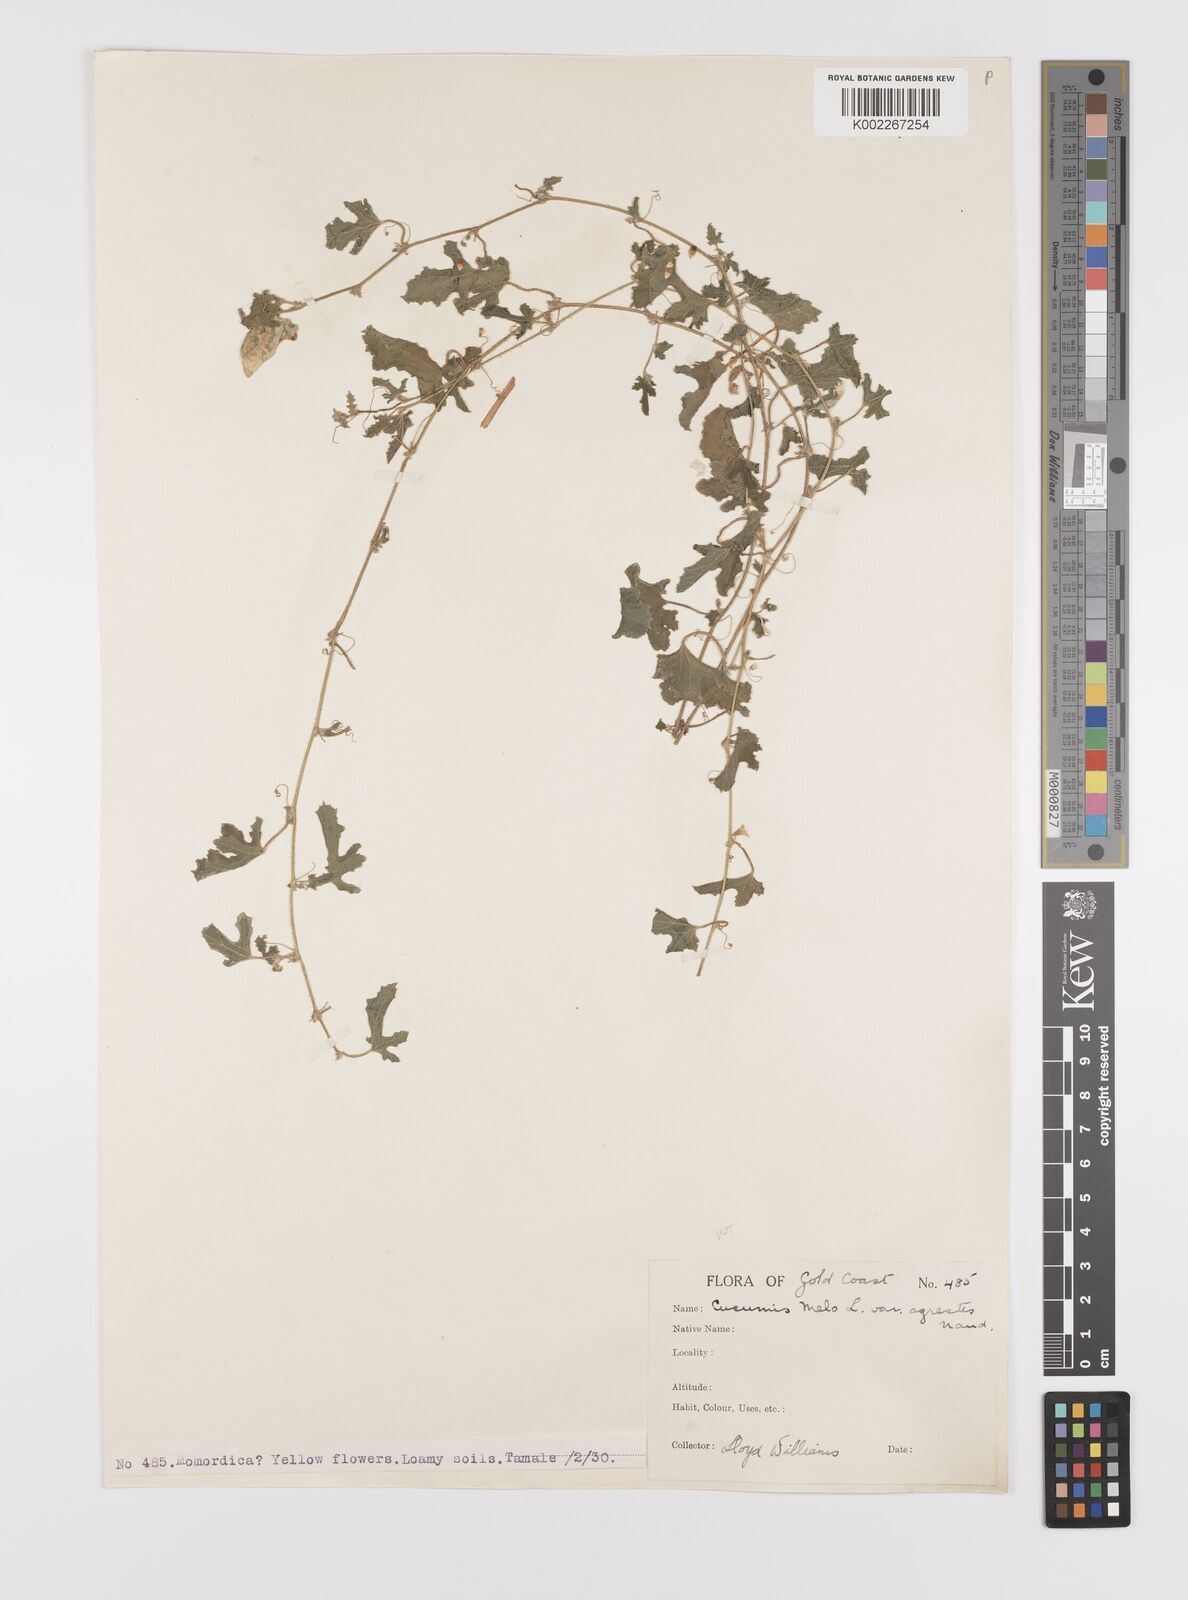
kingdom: Plantae
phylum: Tracheophyta
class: Magnoliopsida
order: Cucurbitales
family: Cucurbitaceae
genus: Cucumis
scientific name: Cucumis melo
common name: Melon
